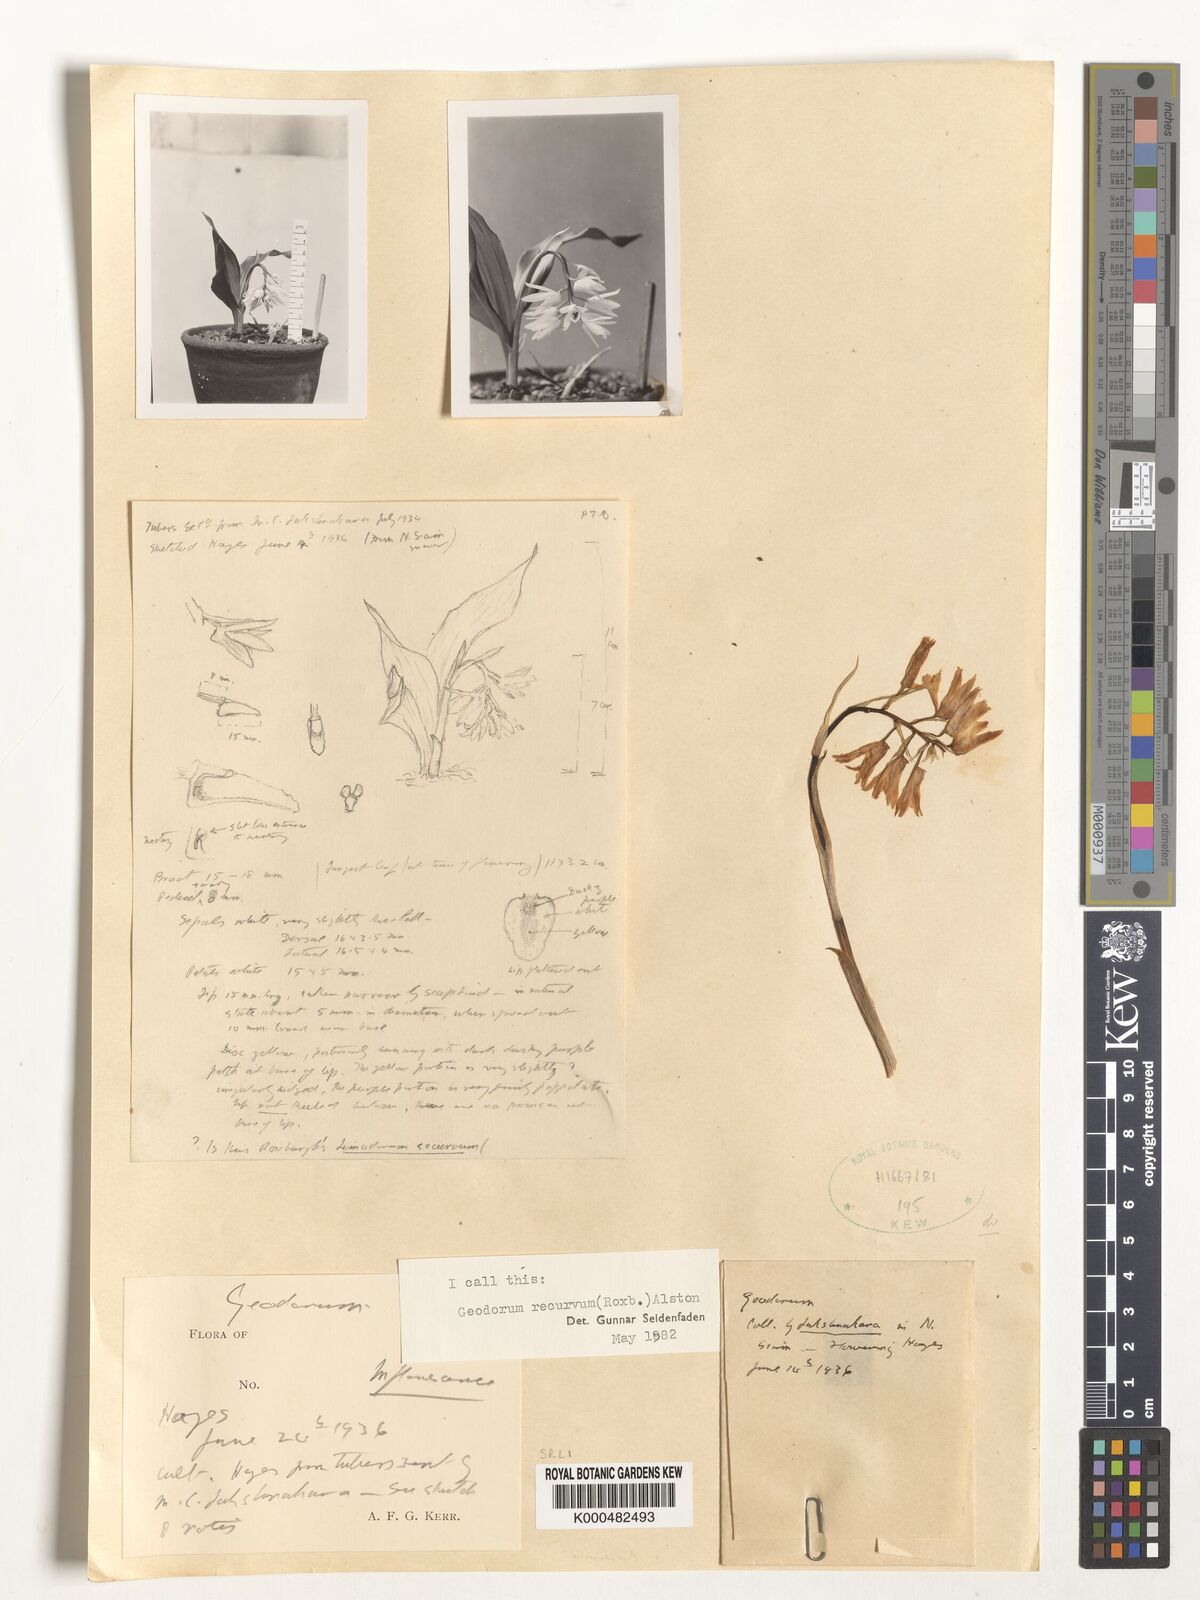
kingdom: Plantae
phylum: Tracheophyta
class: Liliopsida
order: Asparagales
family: Orchidaceae
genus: Eulophia
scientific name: Eulophia recurva
